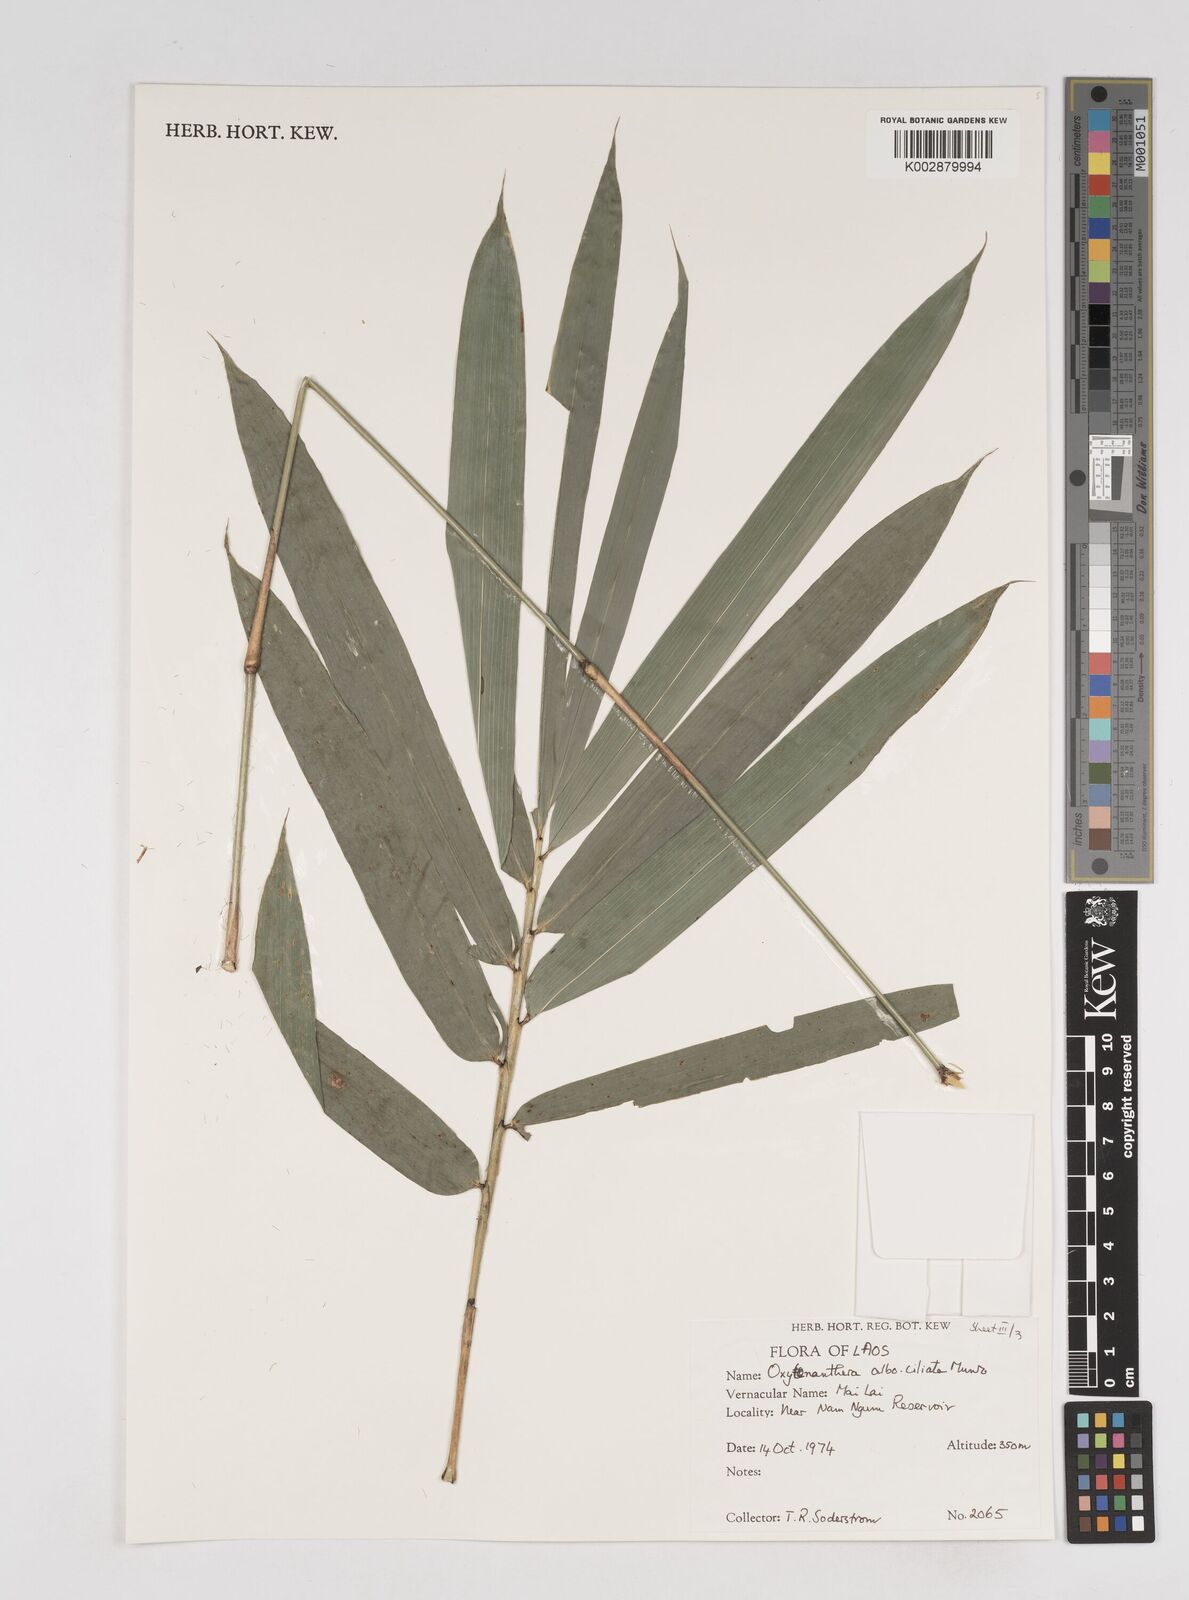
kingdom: Plantae
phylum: Tracheophyta
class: Liliopsida
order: Poales
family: Poaceae
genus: Gigantochloa
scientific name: Gigantochloa albociliata
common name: White-fringe gigantochloa
